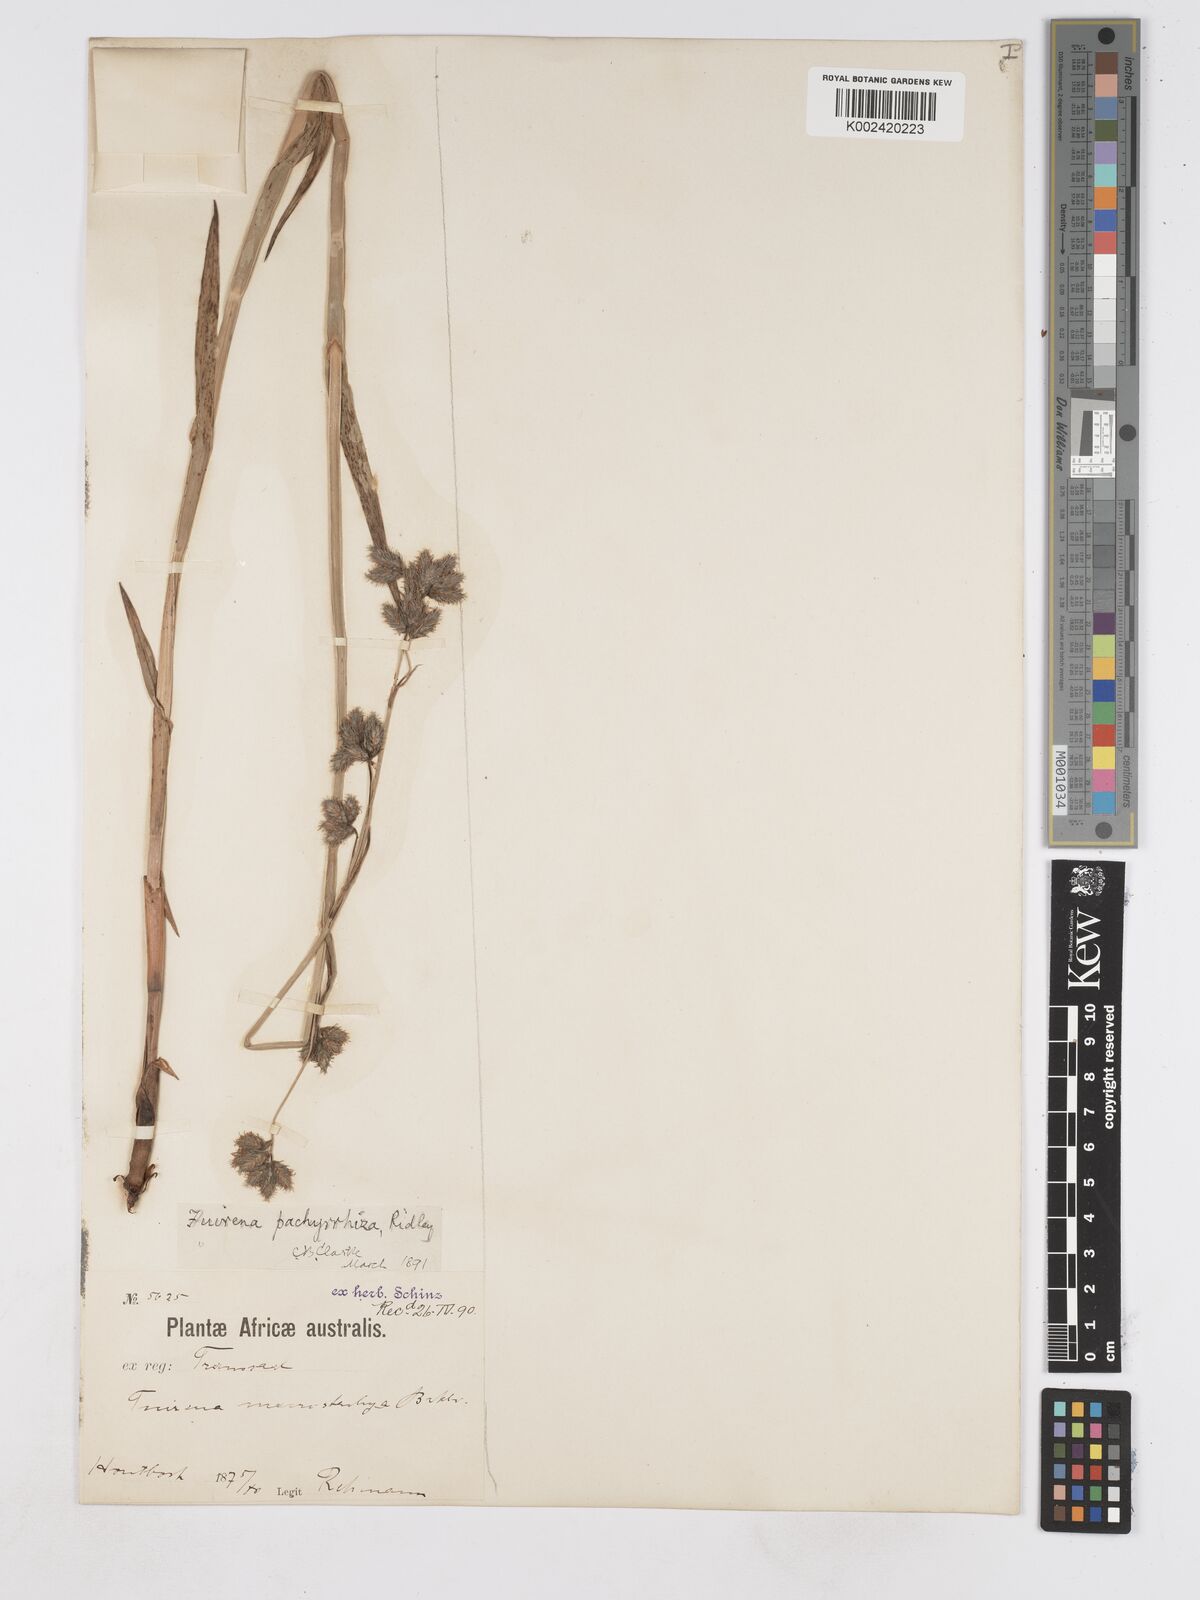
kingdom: Plantae
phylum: Tracheophyta
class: Liliopsida
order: Poales
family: Cyperaceae
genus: Fuirena
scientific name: Fuirena pachyrrhiza
